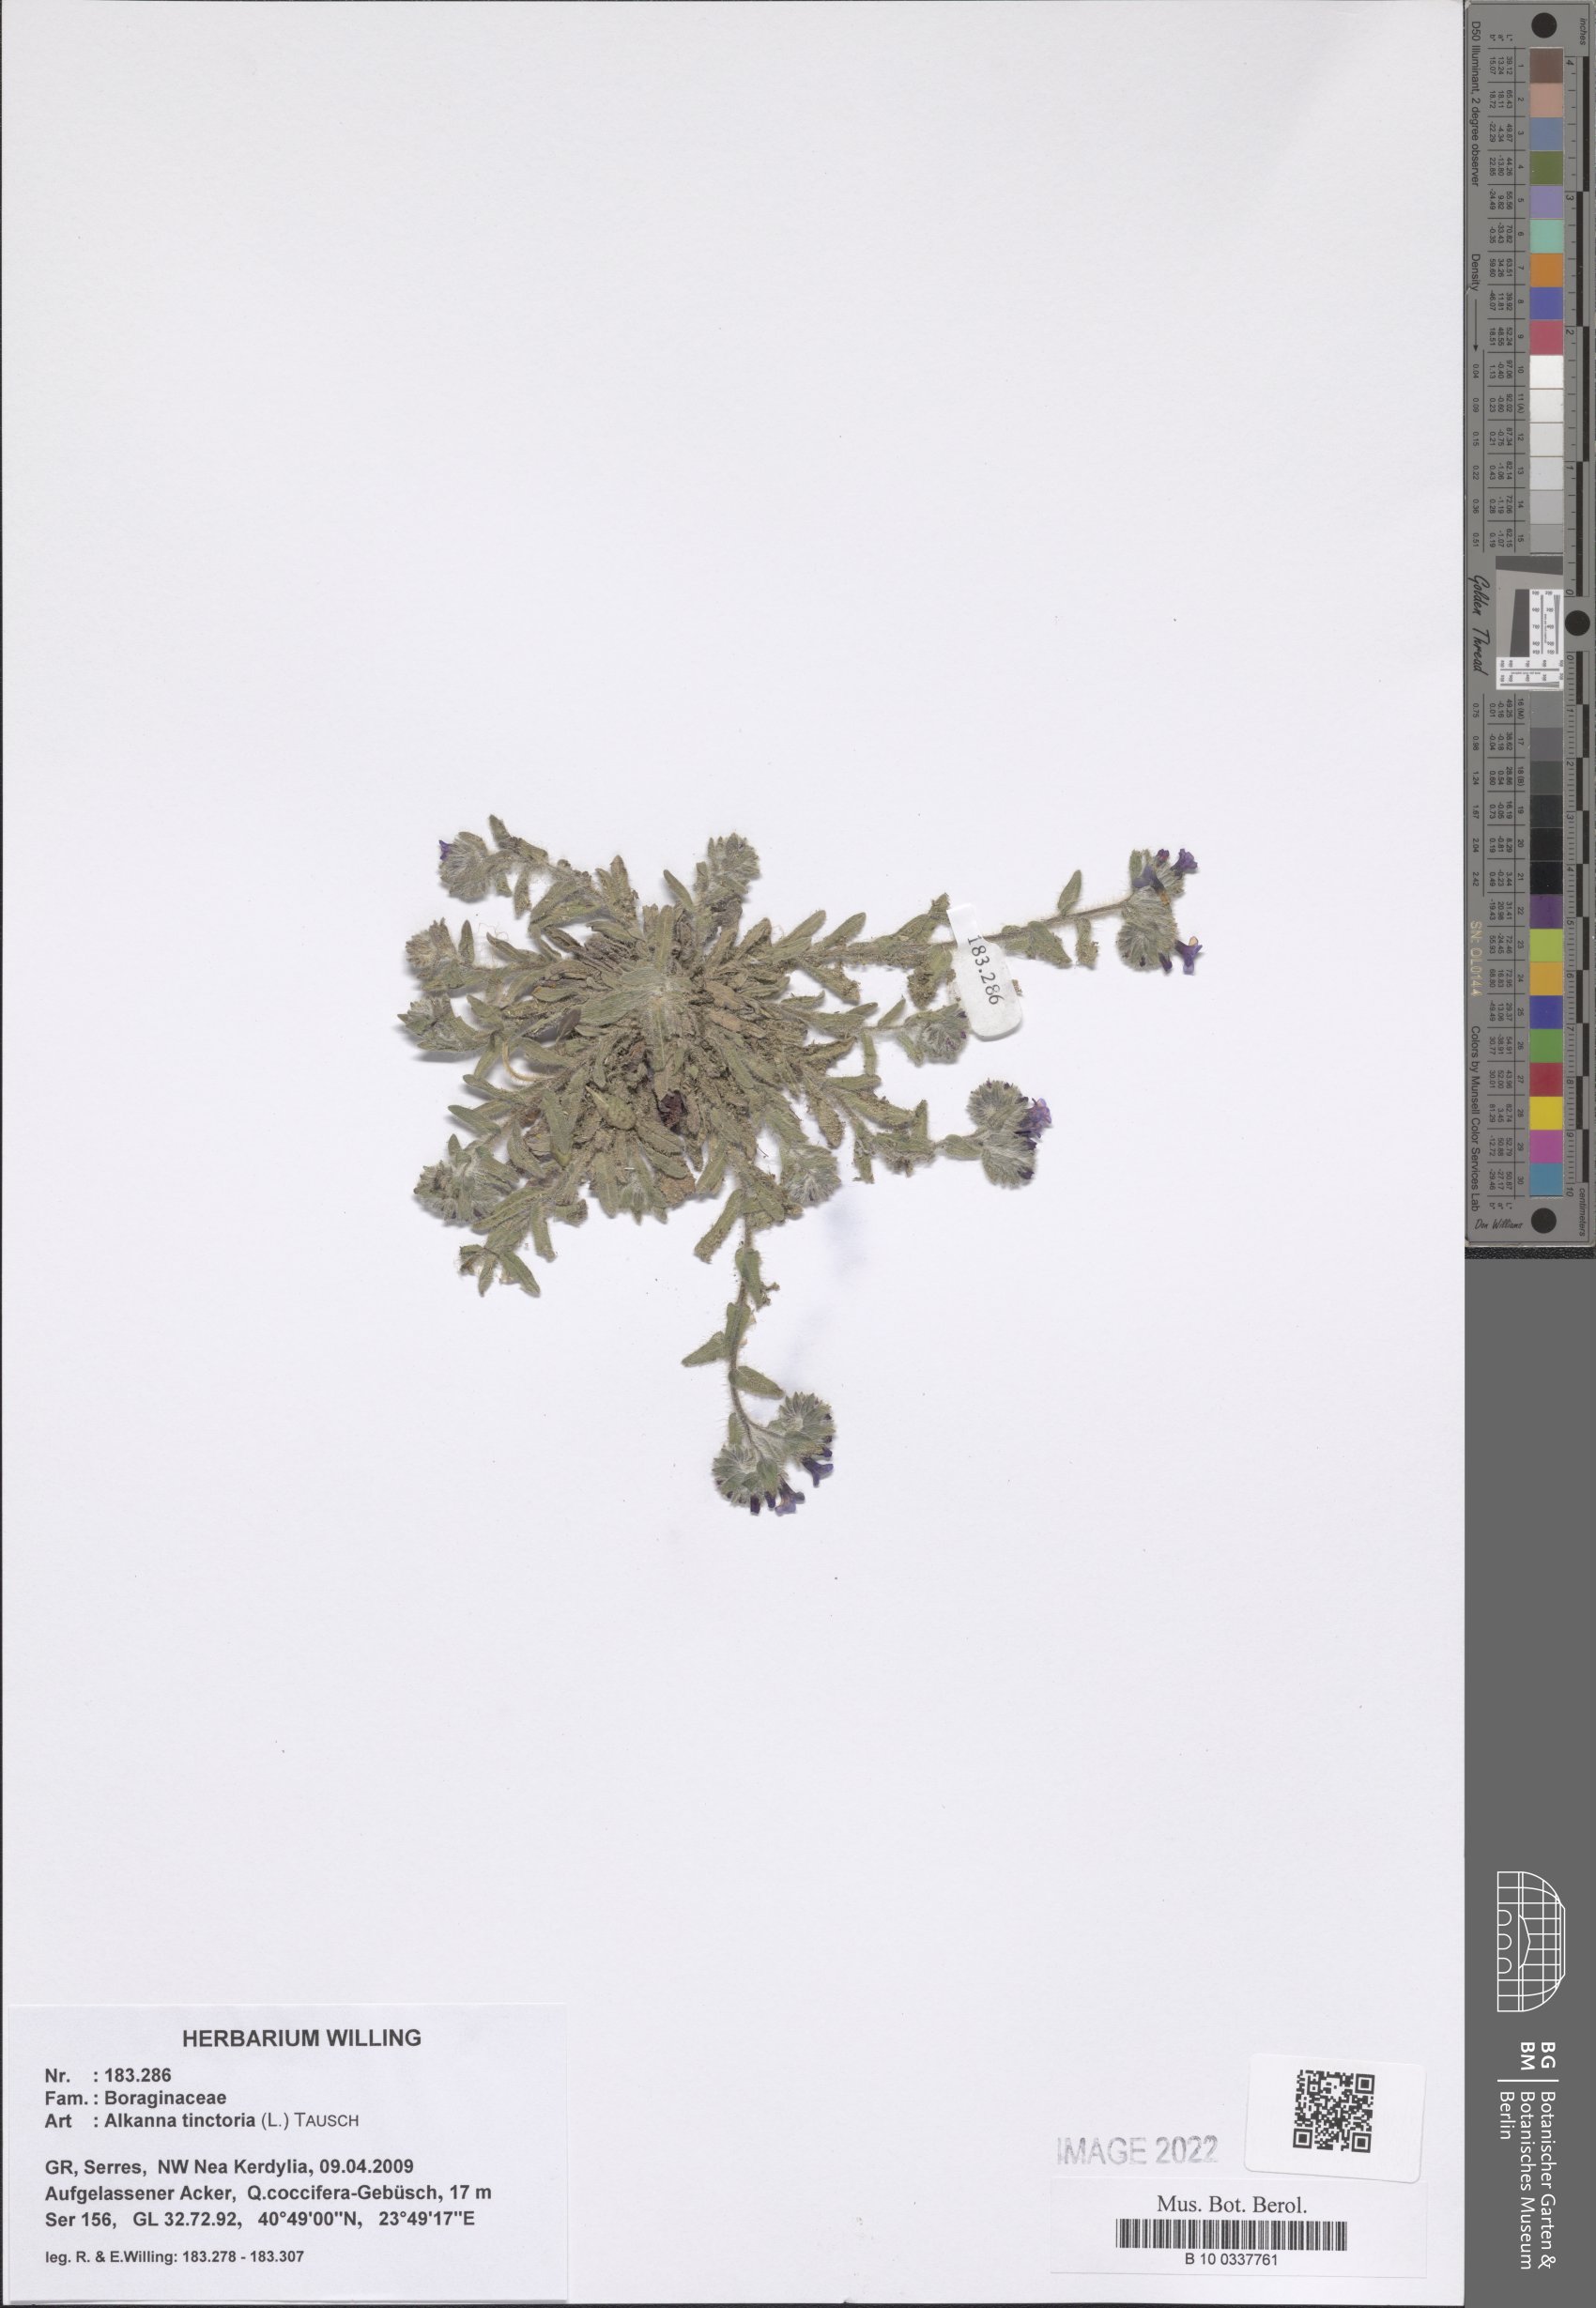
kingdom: Plantae
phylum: Tracheophyta
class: Magnoliopsida
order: Boraginales
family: Boraginaceae
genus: Alkanna
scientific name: Alkanna tinctoria
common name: Dyer's-alkanet
